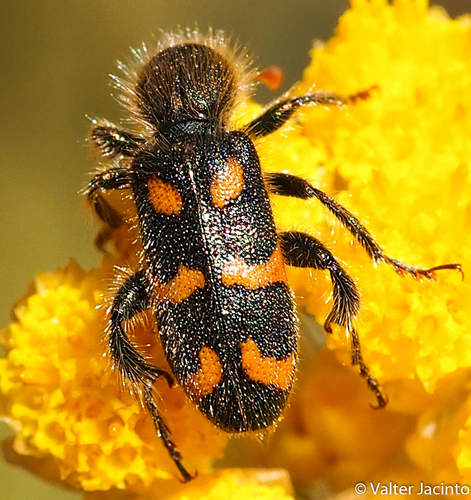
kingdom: Animalia
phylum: Arthropoda
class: Insecta
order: Coleoptera
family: Cleridae
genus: Trichodes
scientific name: Trichodes flavocinctus
